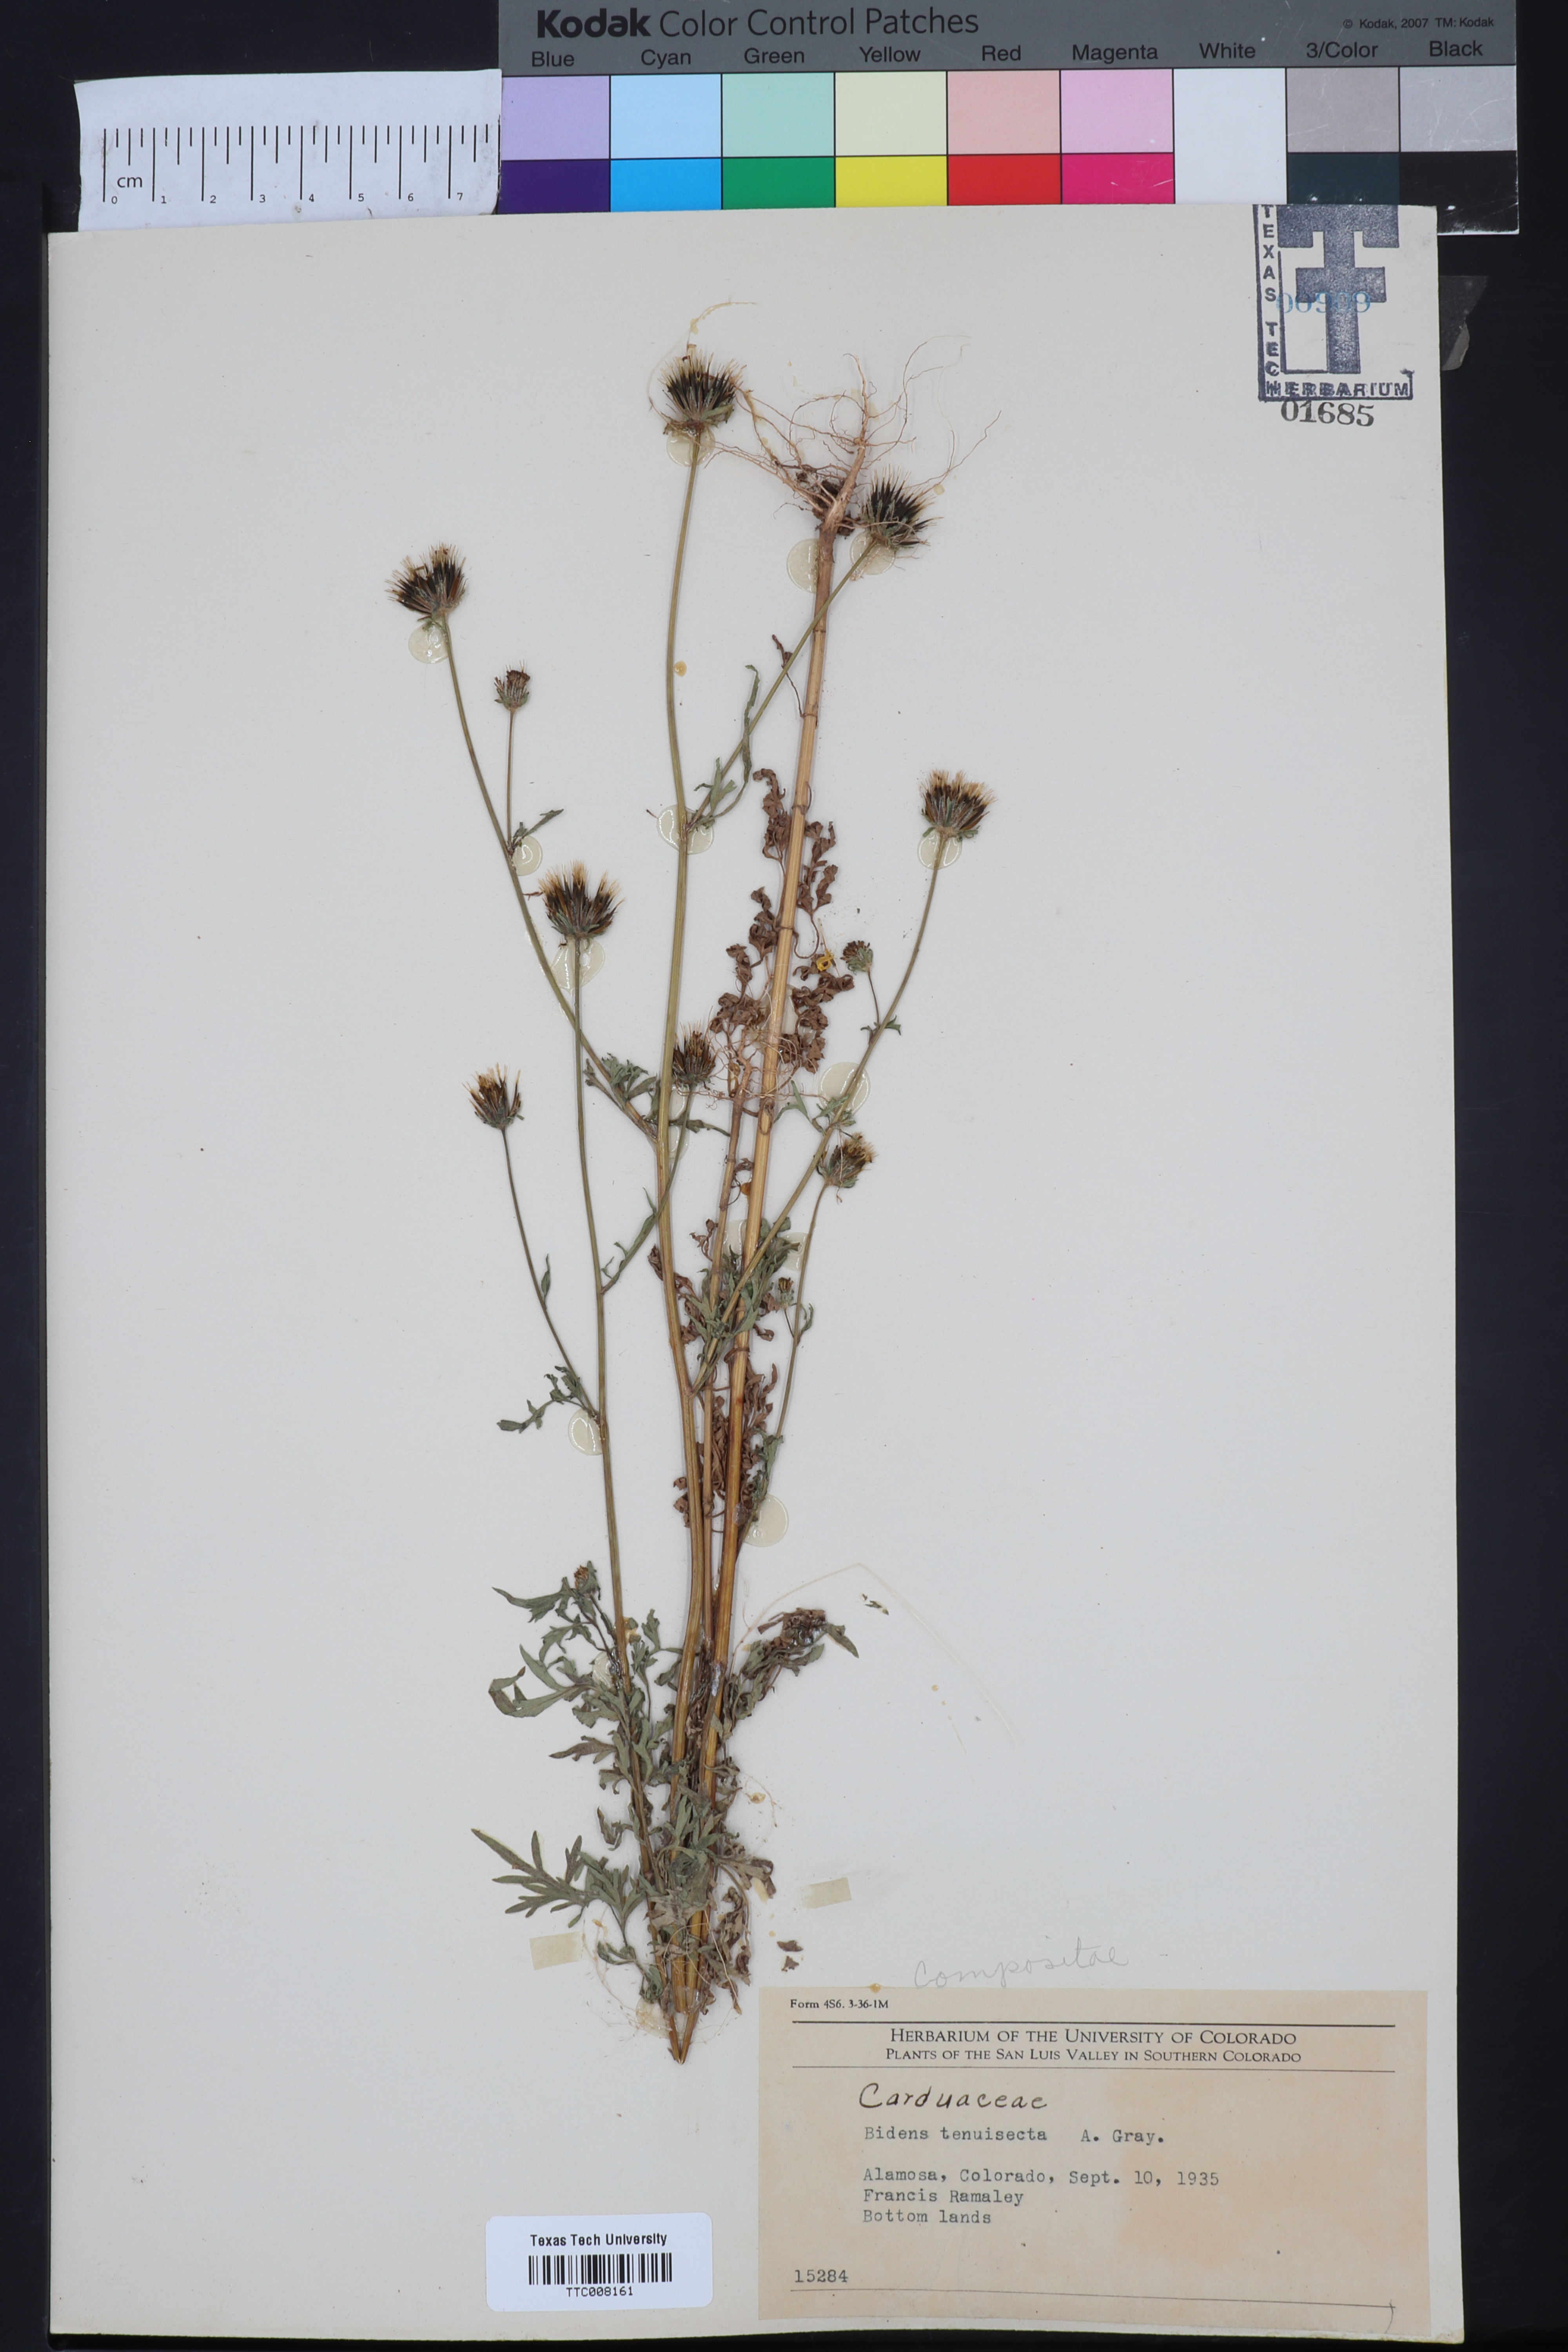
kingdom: Plantae
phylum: Tracheophyta
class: Magnoliopsida
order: Asterales
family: Asteraceae
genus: Bidens
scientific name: Bidens tenuisecta
